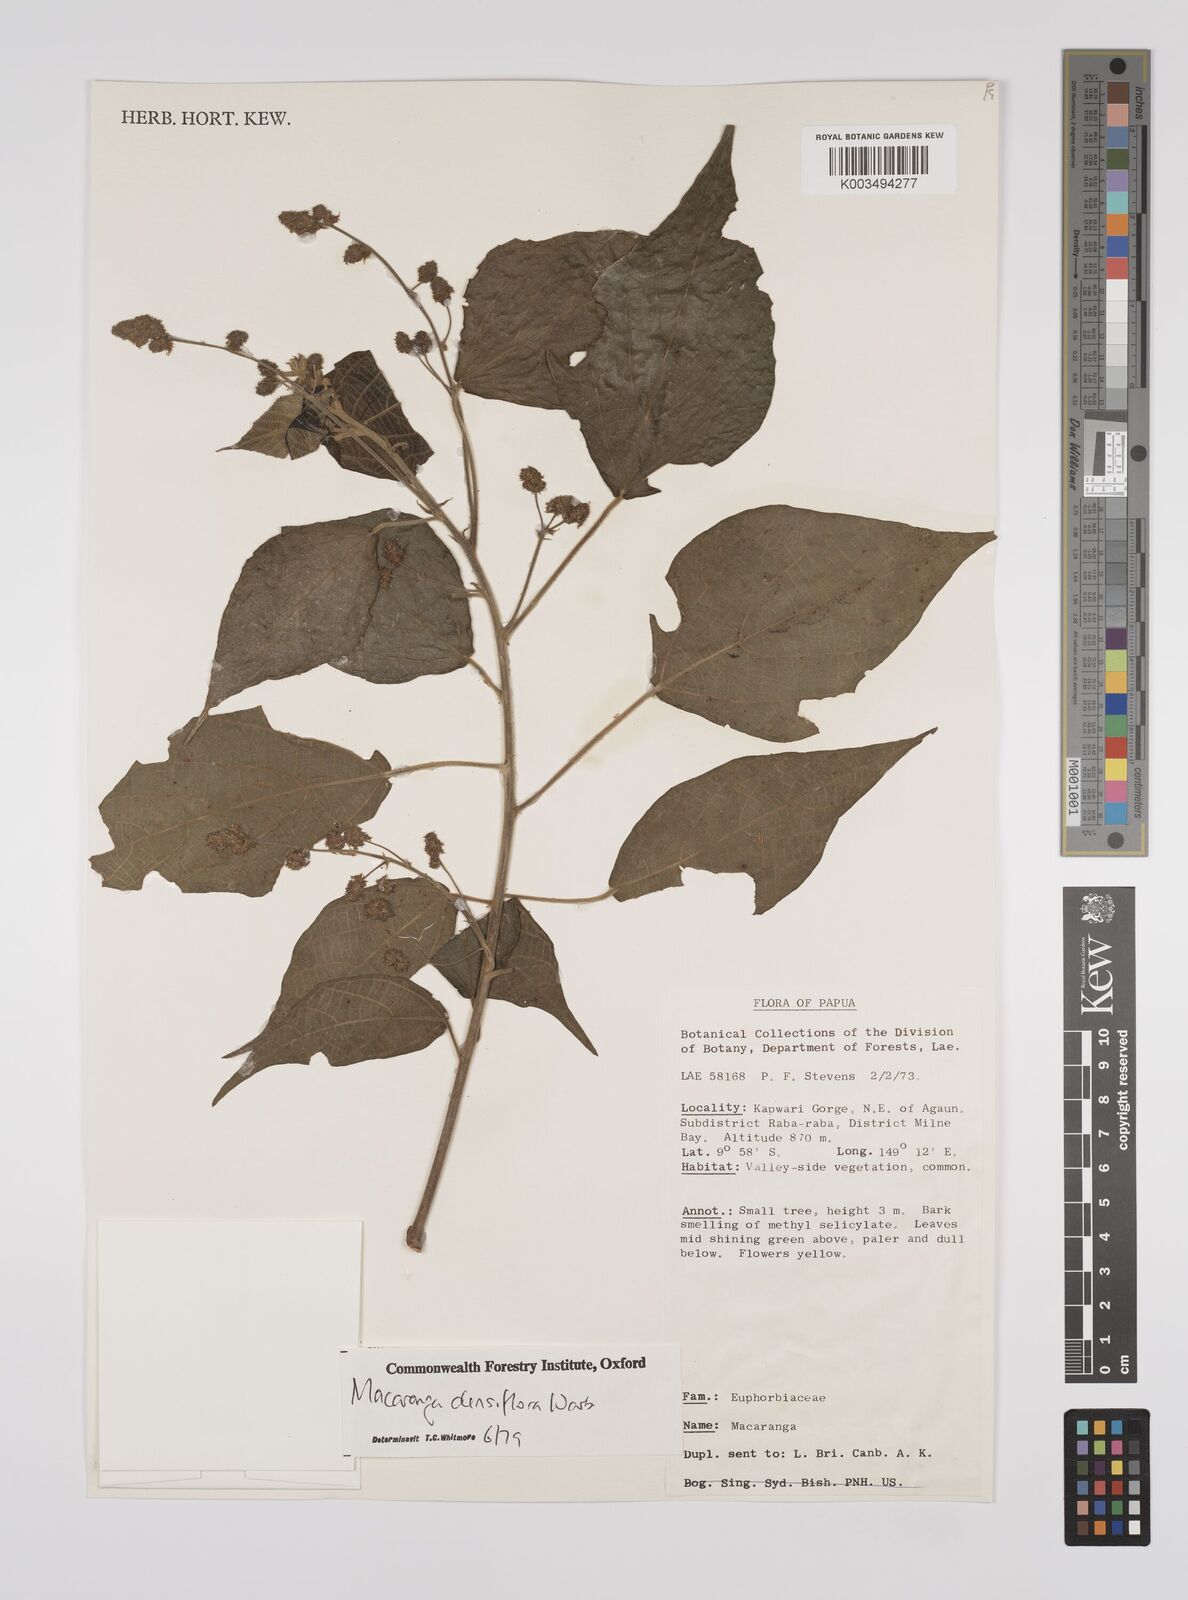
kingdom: Plantae
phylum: Tracheophyta
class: Magnoliopsida
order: Malpighiales
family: Euphorbiaceae
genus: Macaranga
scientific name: Macaranga densiflora
